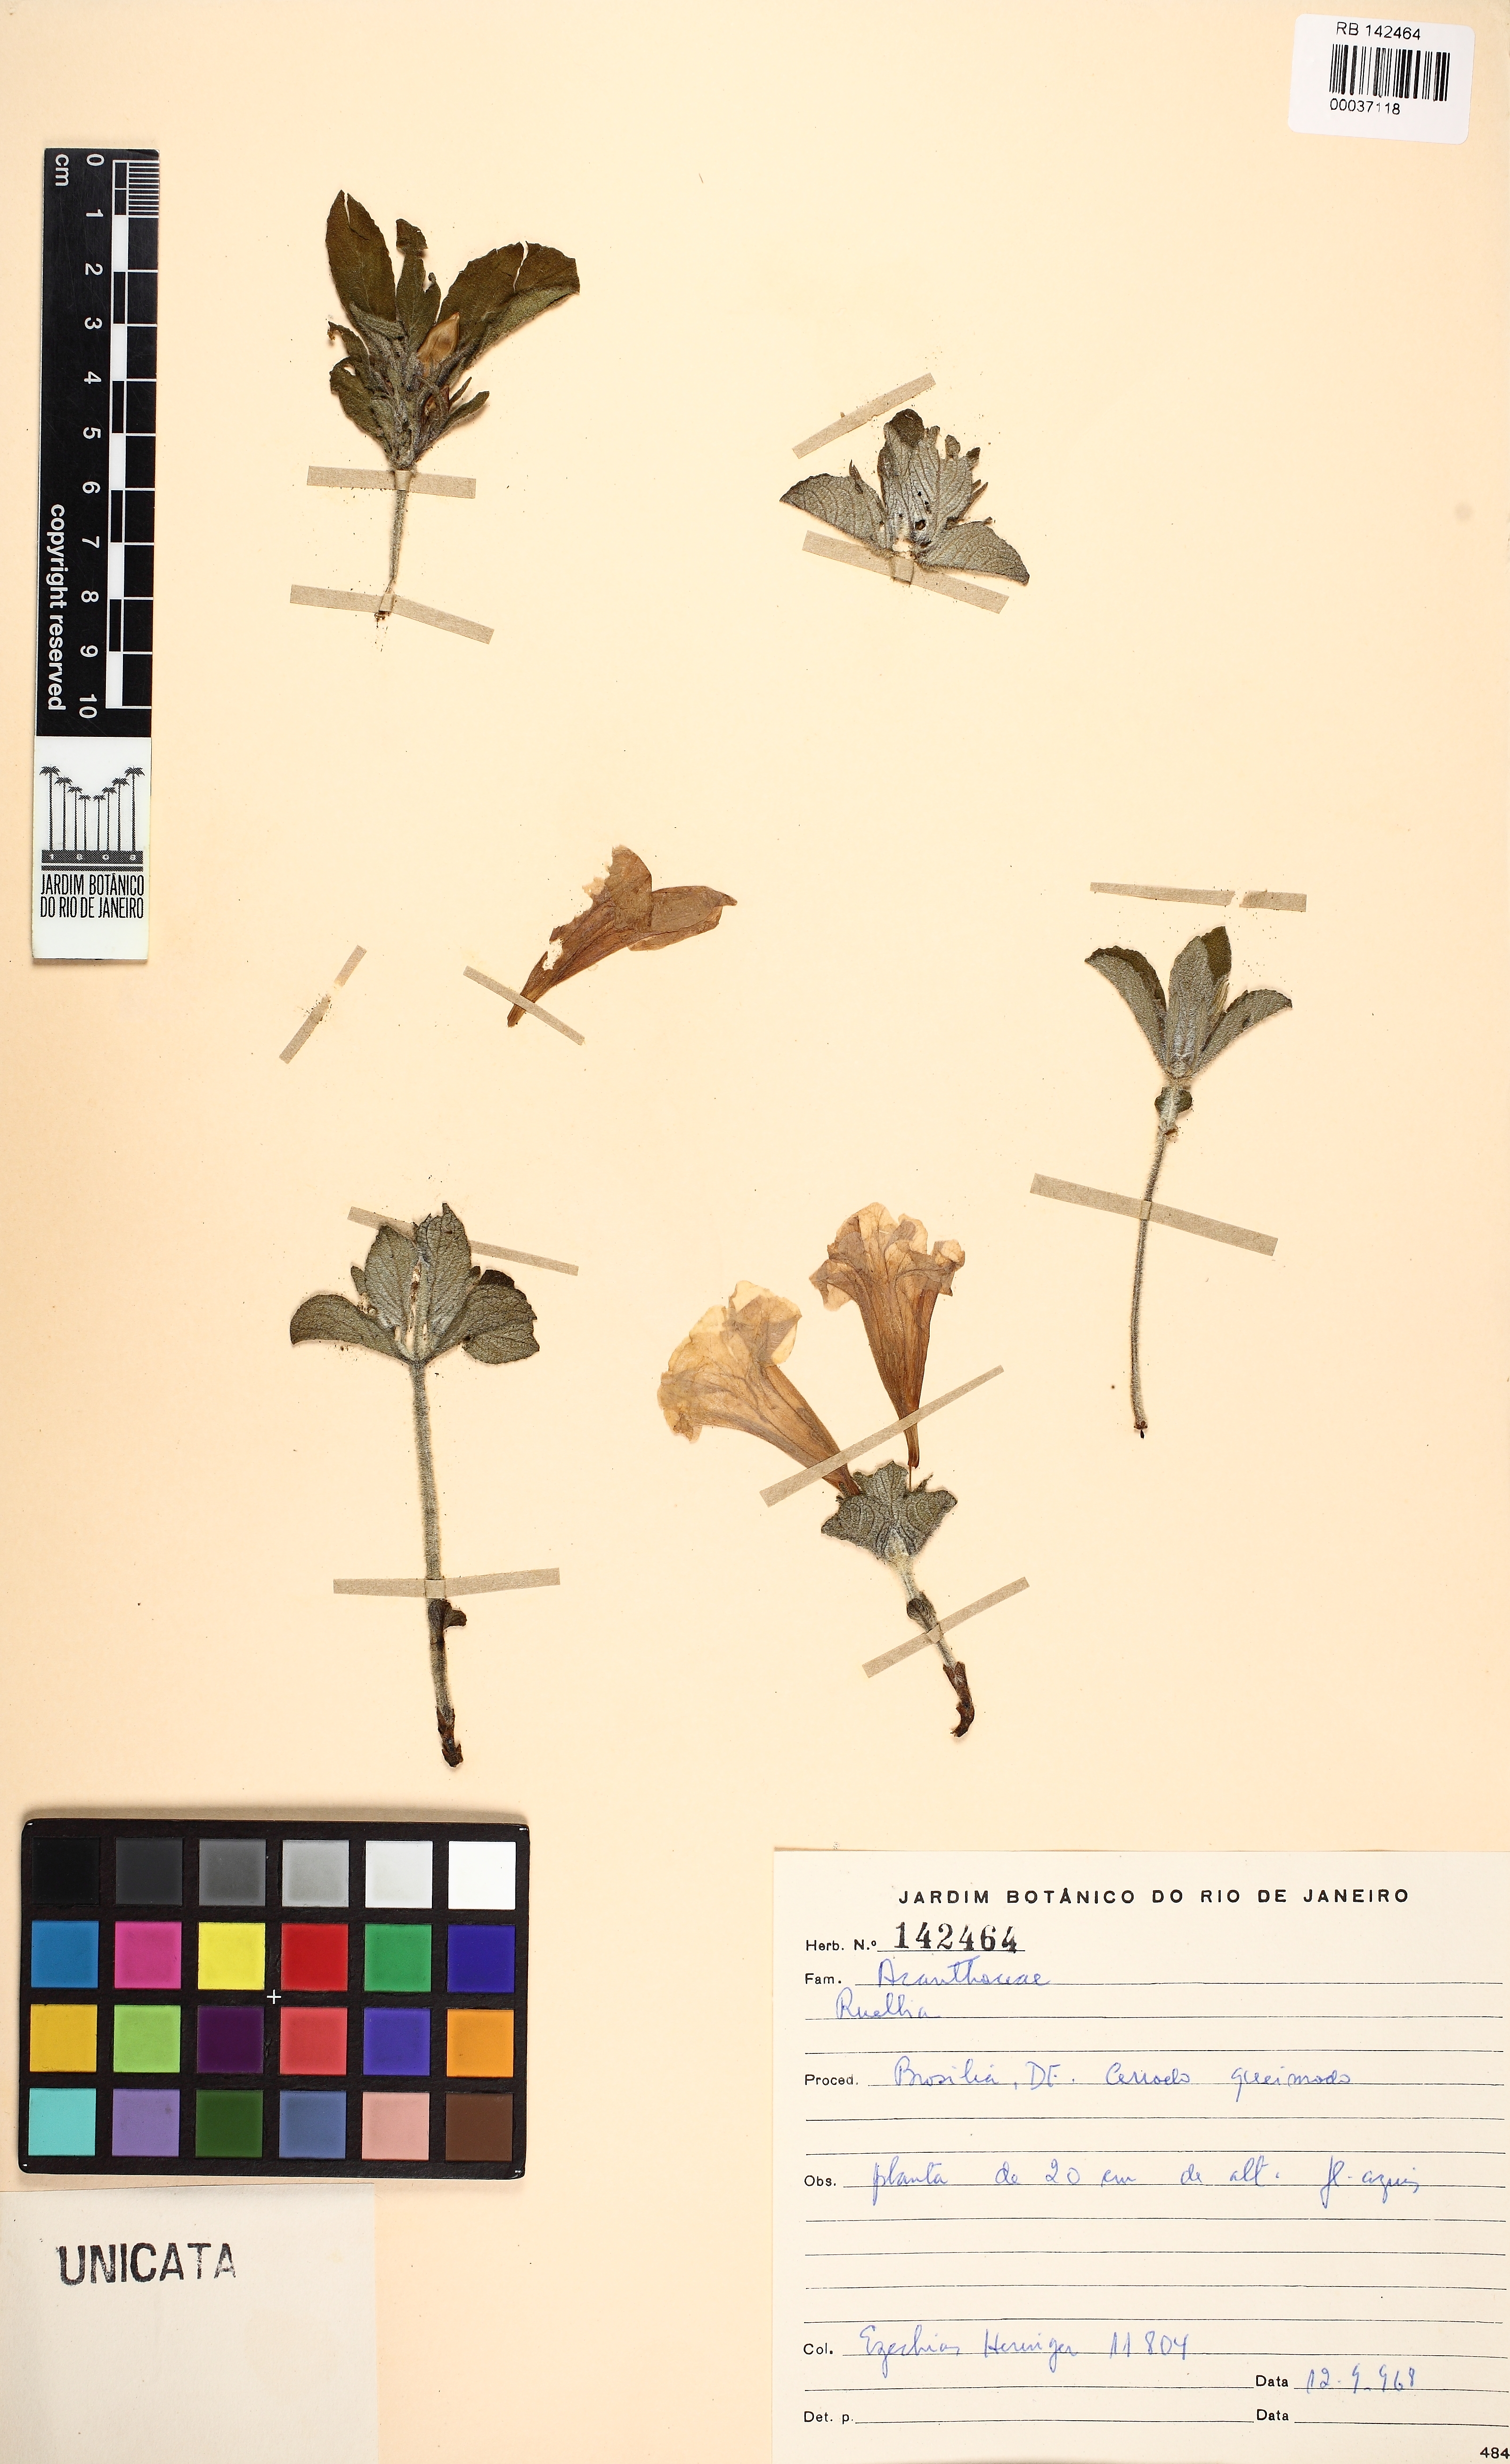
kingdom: Plantae
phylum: Tracheophyta
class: Magnoliopsida
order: Lamiales
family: Acanthaceae
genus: Ruellia
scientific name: Ruellia
